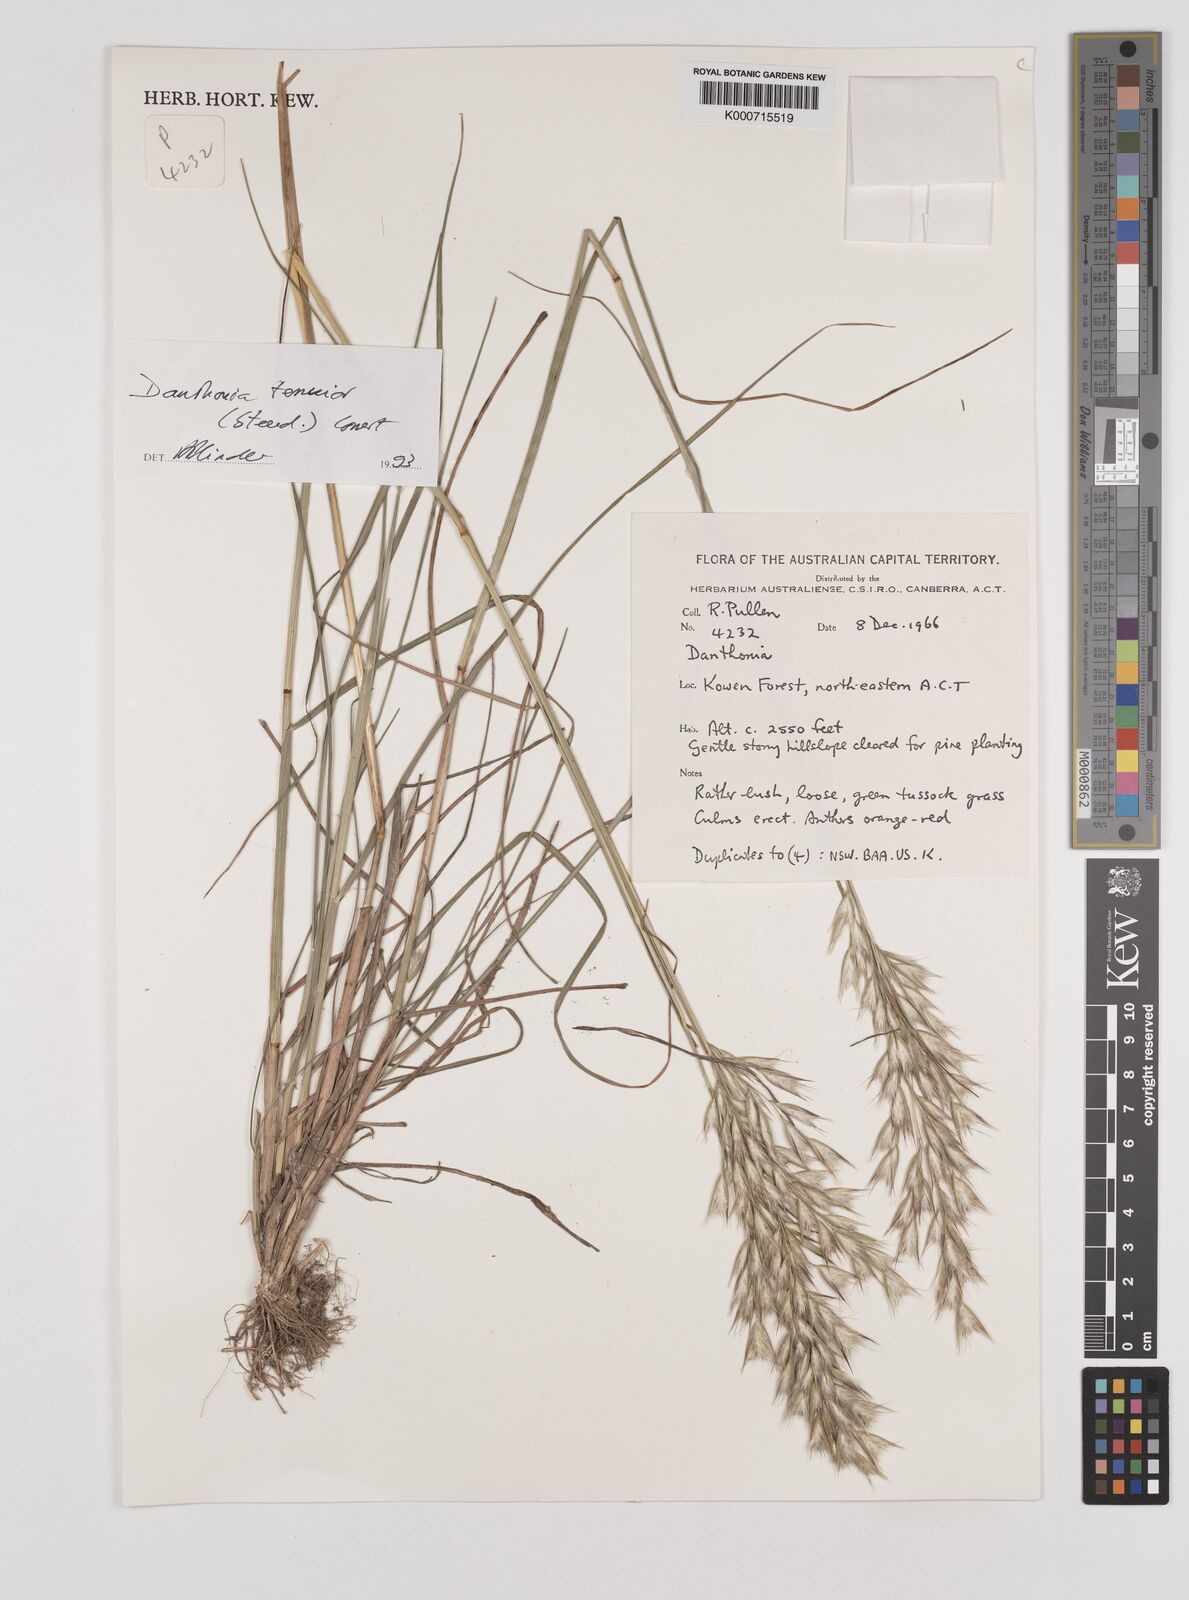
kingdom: Plantae
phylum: Tracheophyta
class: Liliopsida
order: Poales
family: Poaceae
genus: Rytidosperma
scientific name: Rytidosperma tenuius
